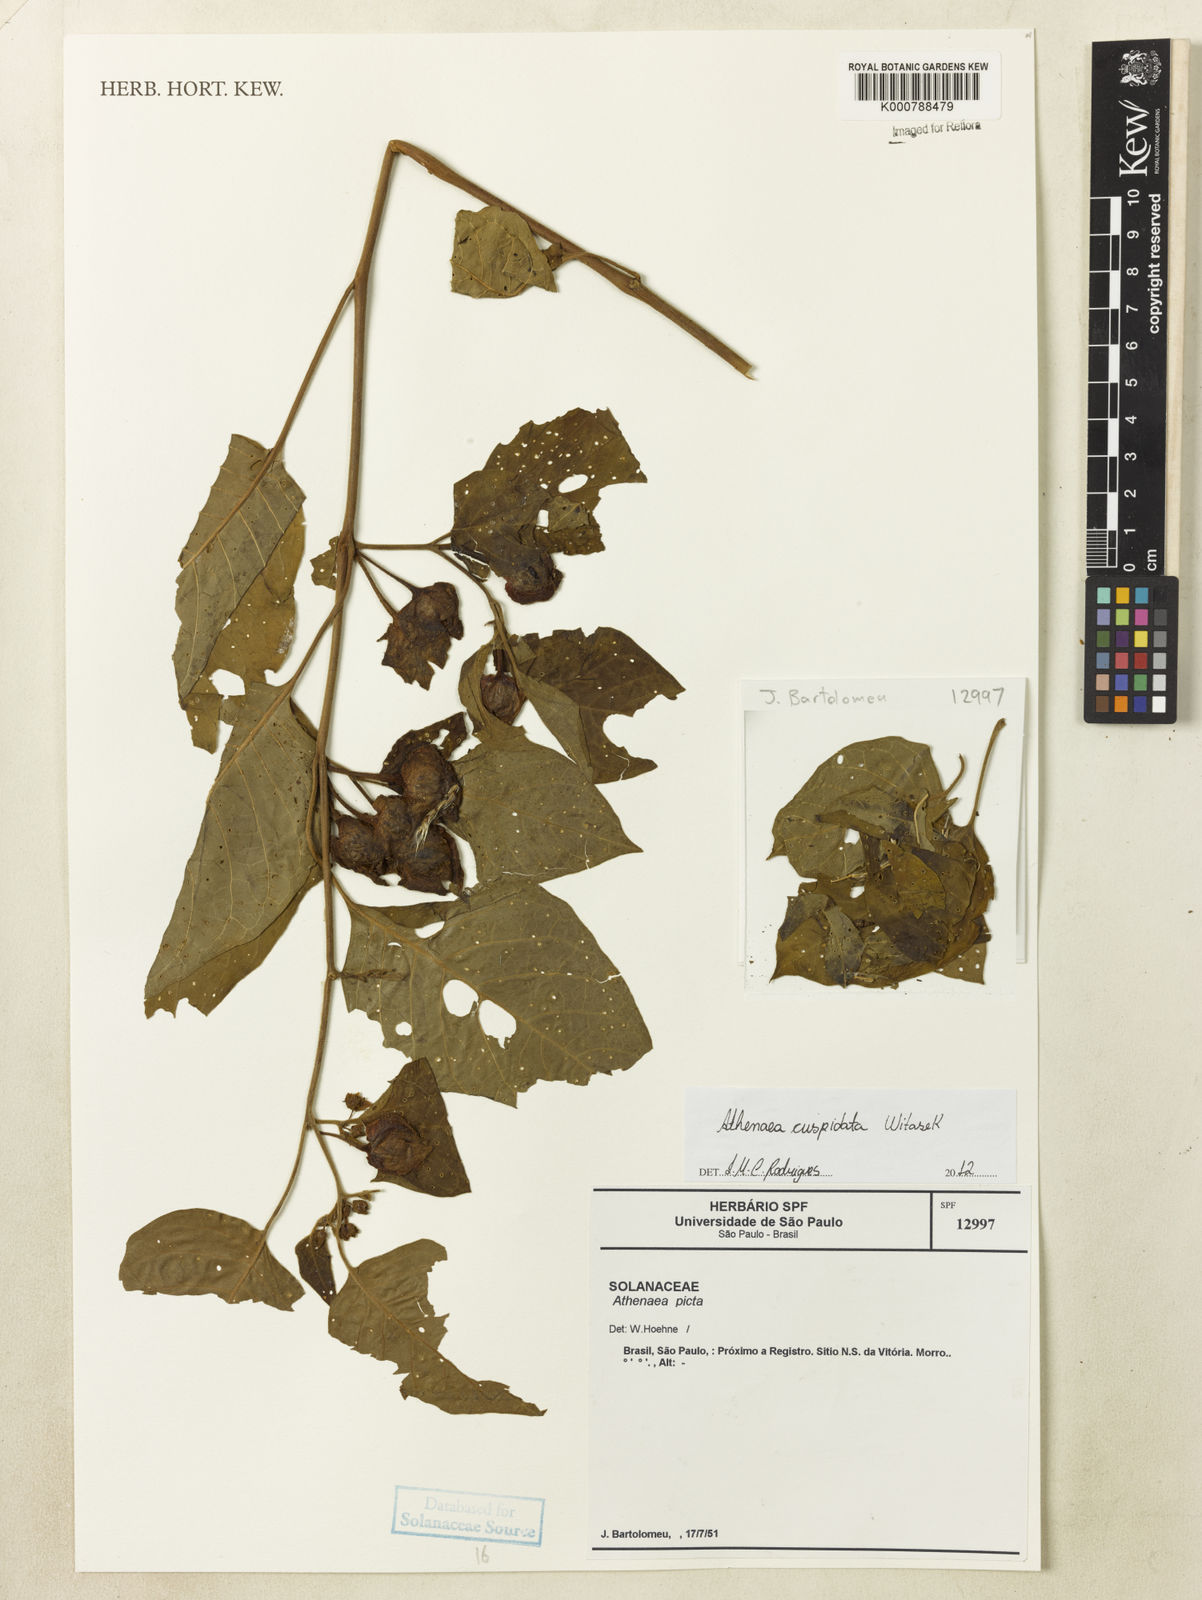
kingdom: Plantae
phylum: Tracheophyta
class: Magnoliopsida
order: Solanales
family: Solanaceae
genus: Athenaea
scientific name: Athenaea cuspidata
